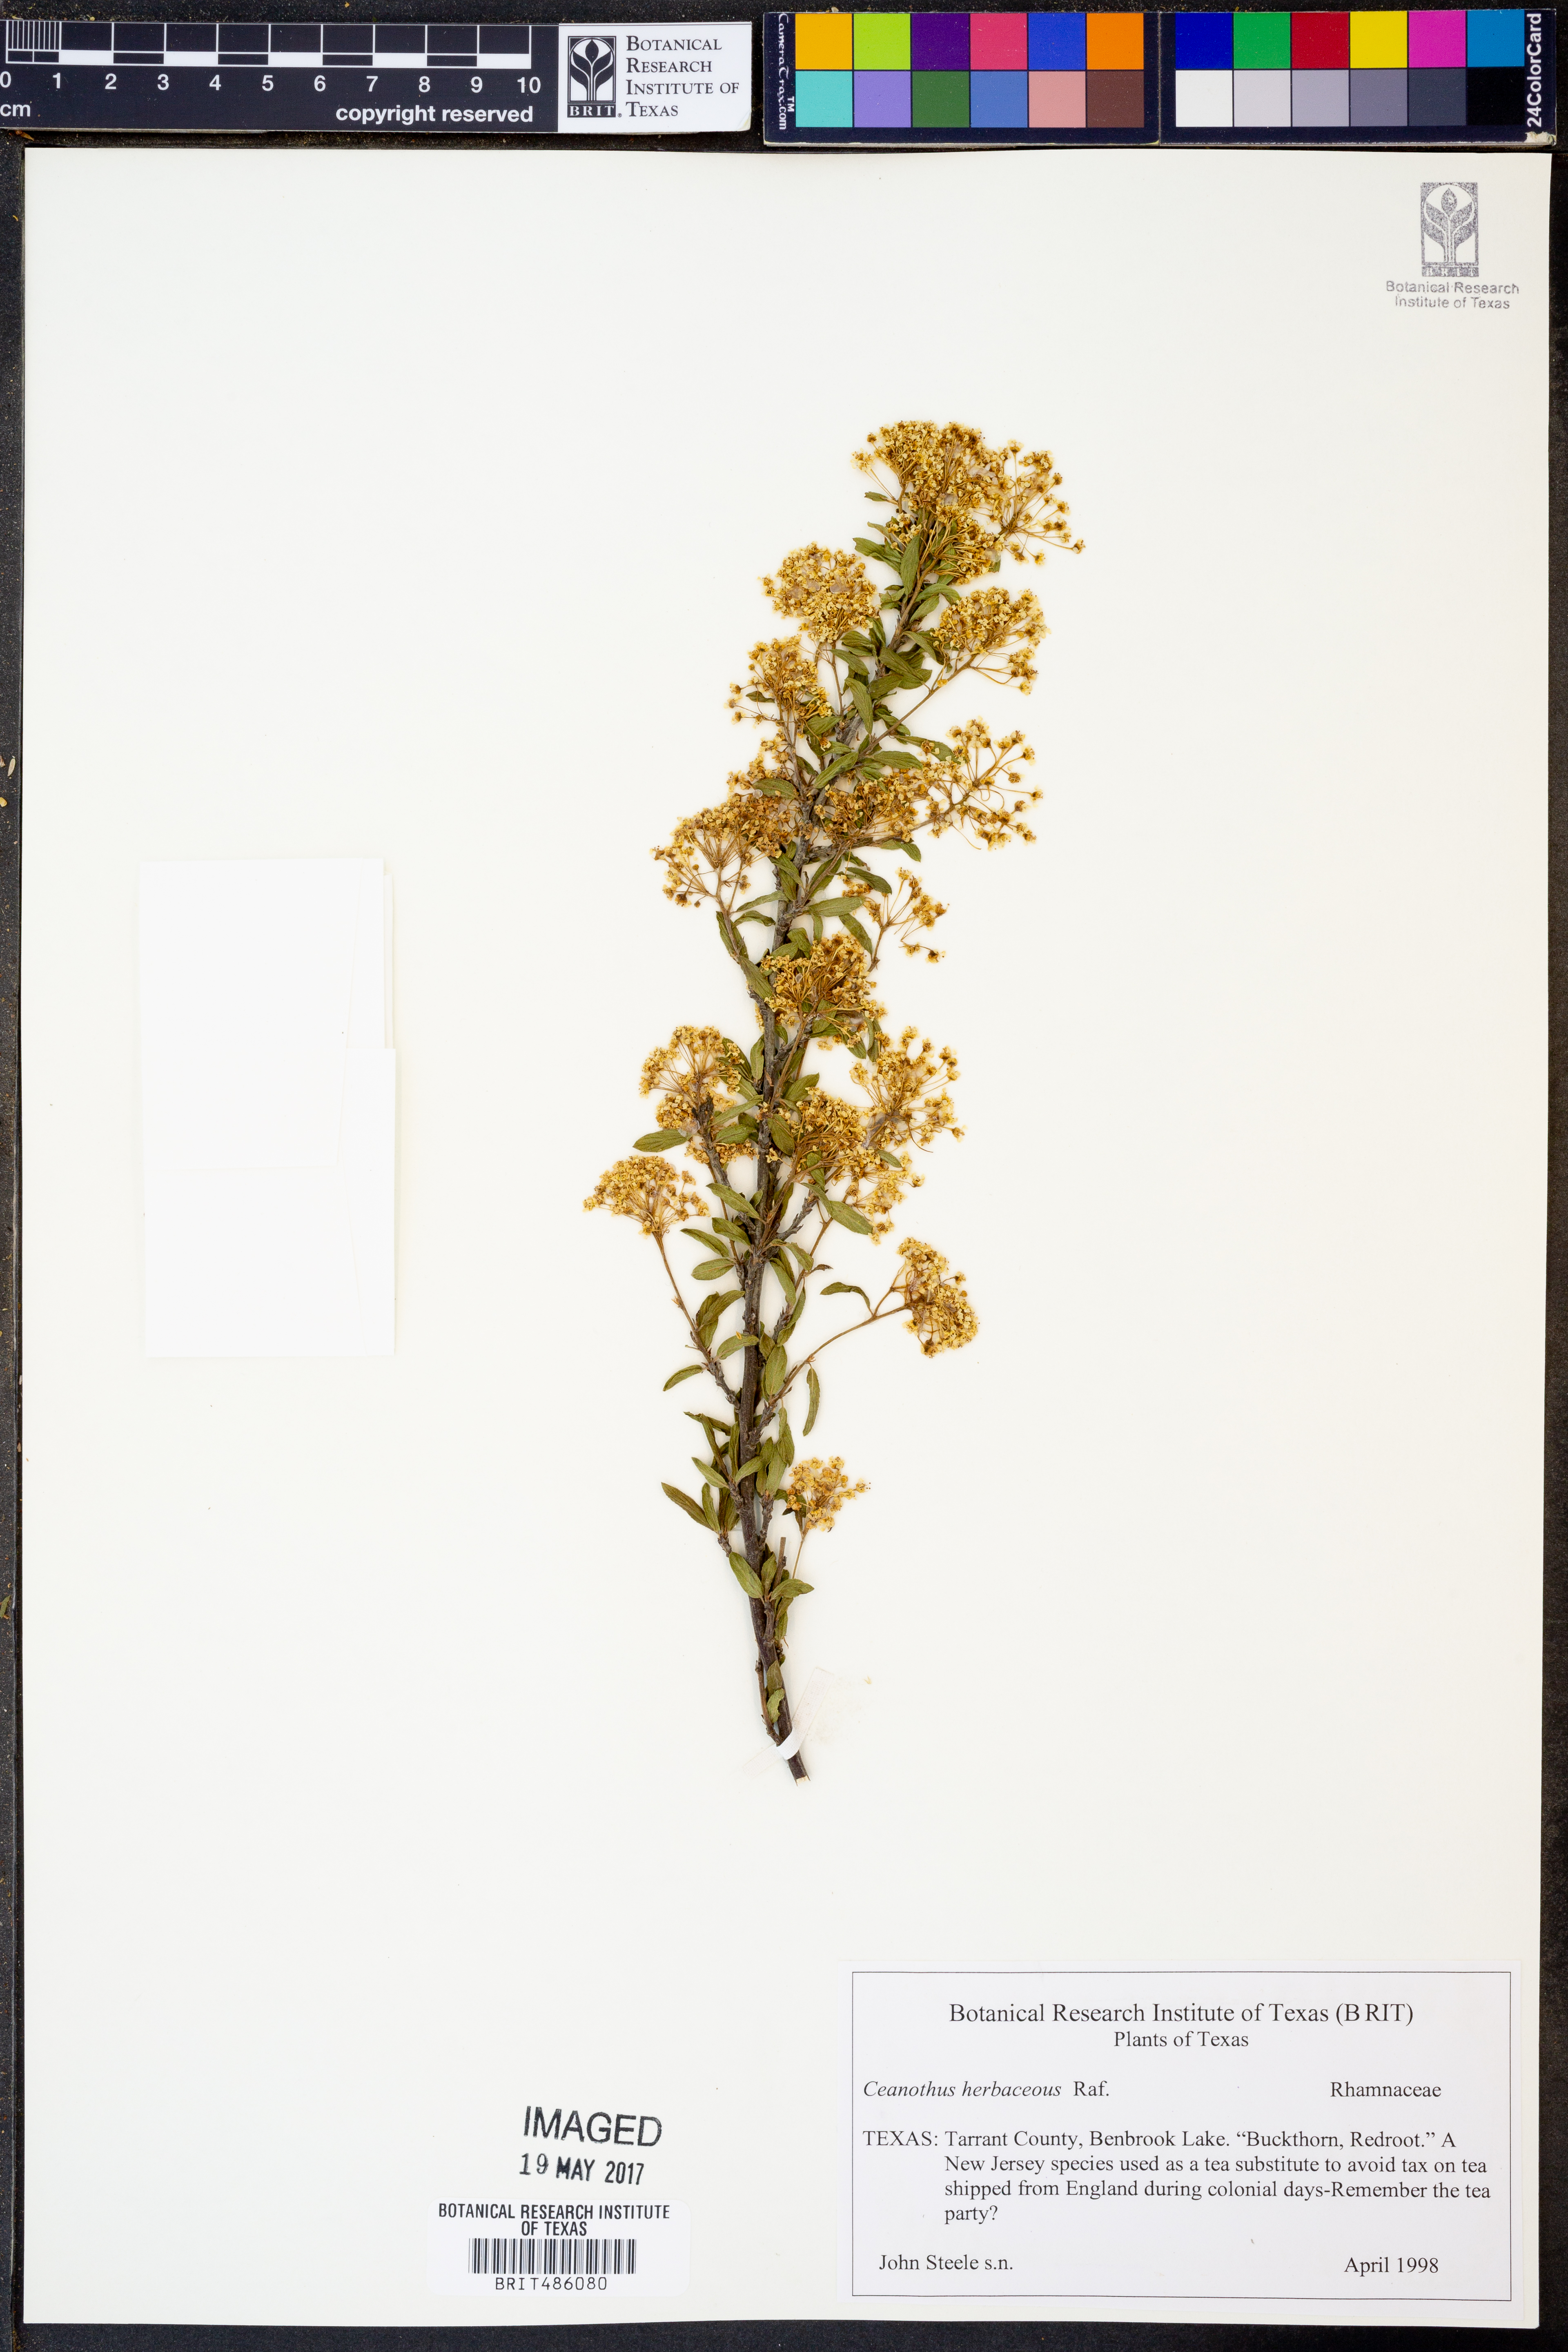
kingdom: Plantae
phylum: Tracheophyta
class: Magnoliopsida
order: Rosales
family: Rhamnaceae
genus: Ceanothus
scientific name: Ceanothus herbaceus
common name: Inland ceanothus
